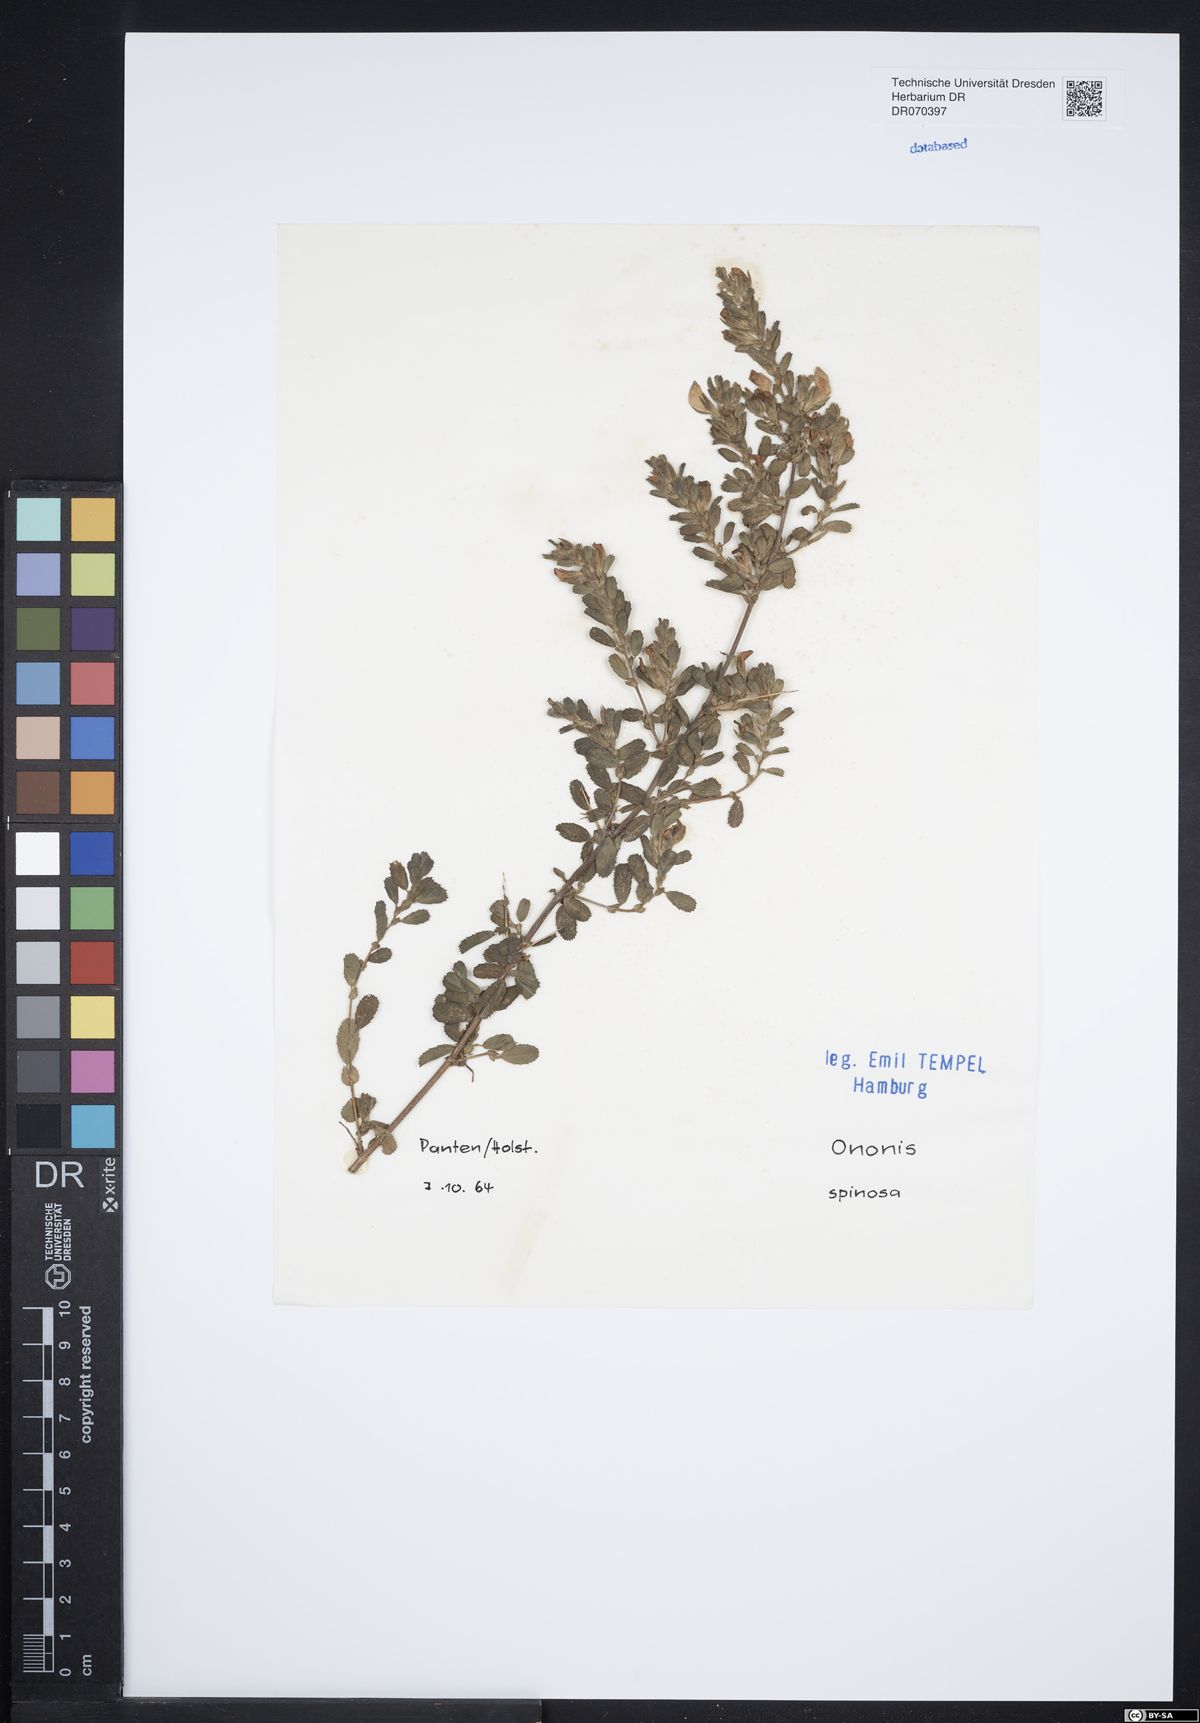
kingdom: Plantae
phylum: Tracheophyta
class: Magnoliopsida
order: Fabales
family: Fabaceae
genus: Ononis
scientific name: Ononis spinosa
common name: Spiny restharrow
